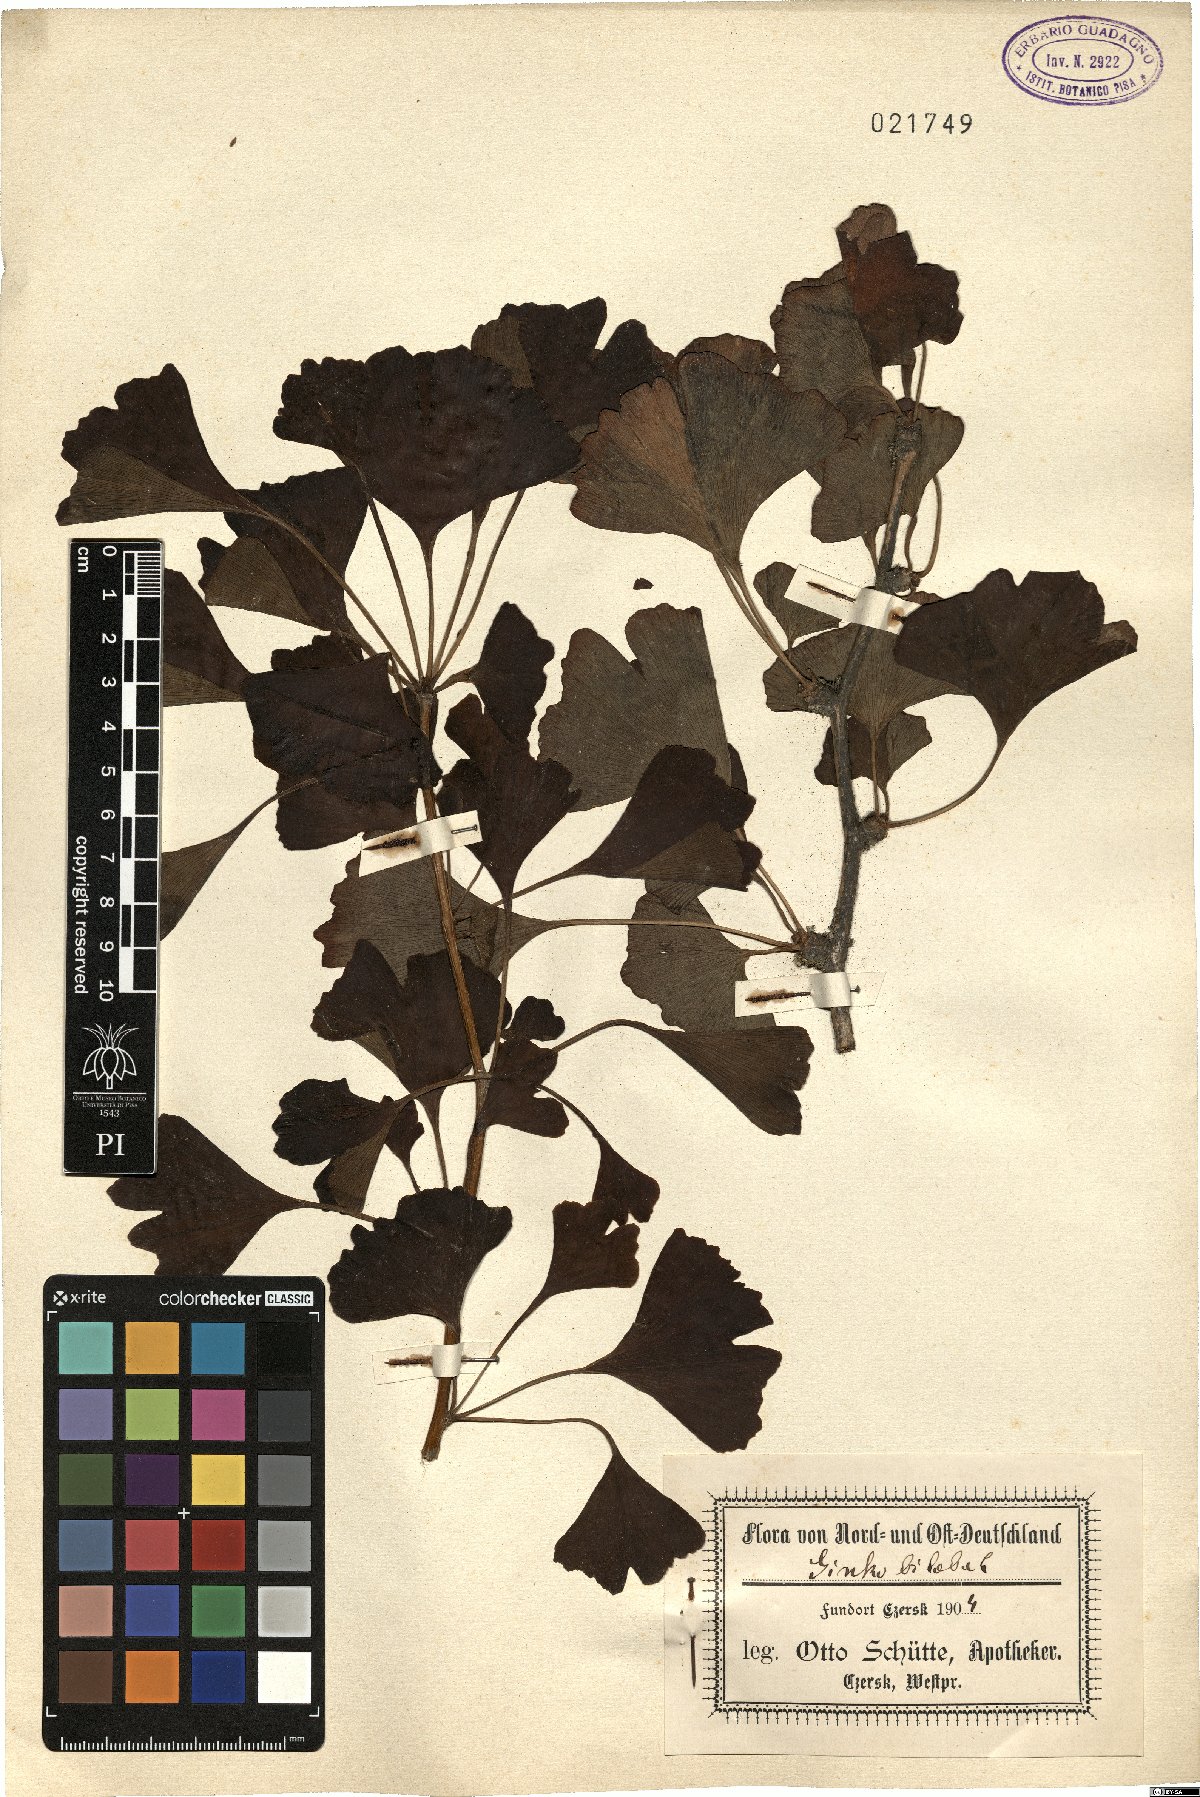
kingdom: Plantae
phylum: Tracheophyta
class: Ginkgoopsida
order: Ginkgoales
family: Ginkgoaceae
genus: Ginkgo
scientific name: Ginkgo biloba
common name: Ginkgo
